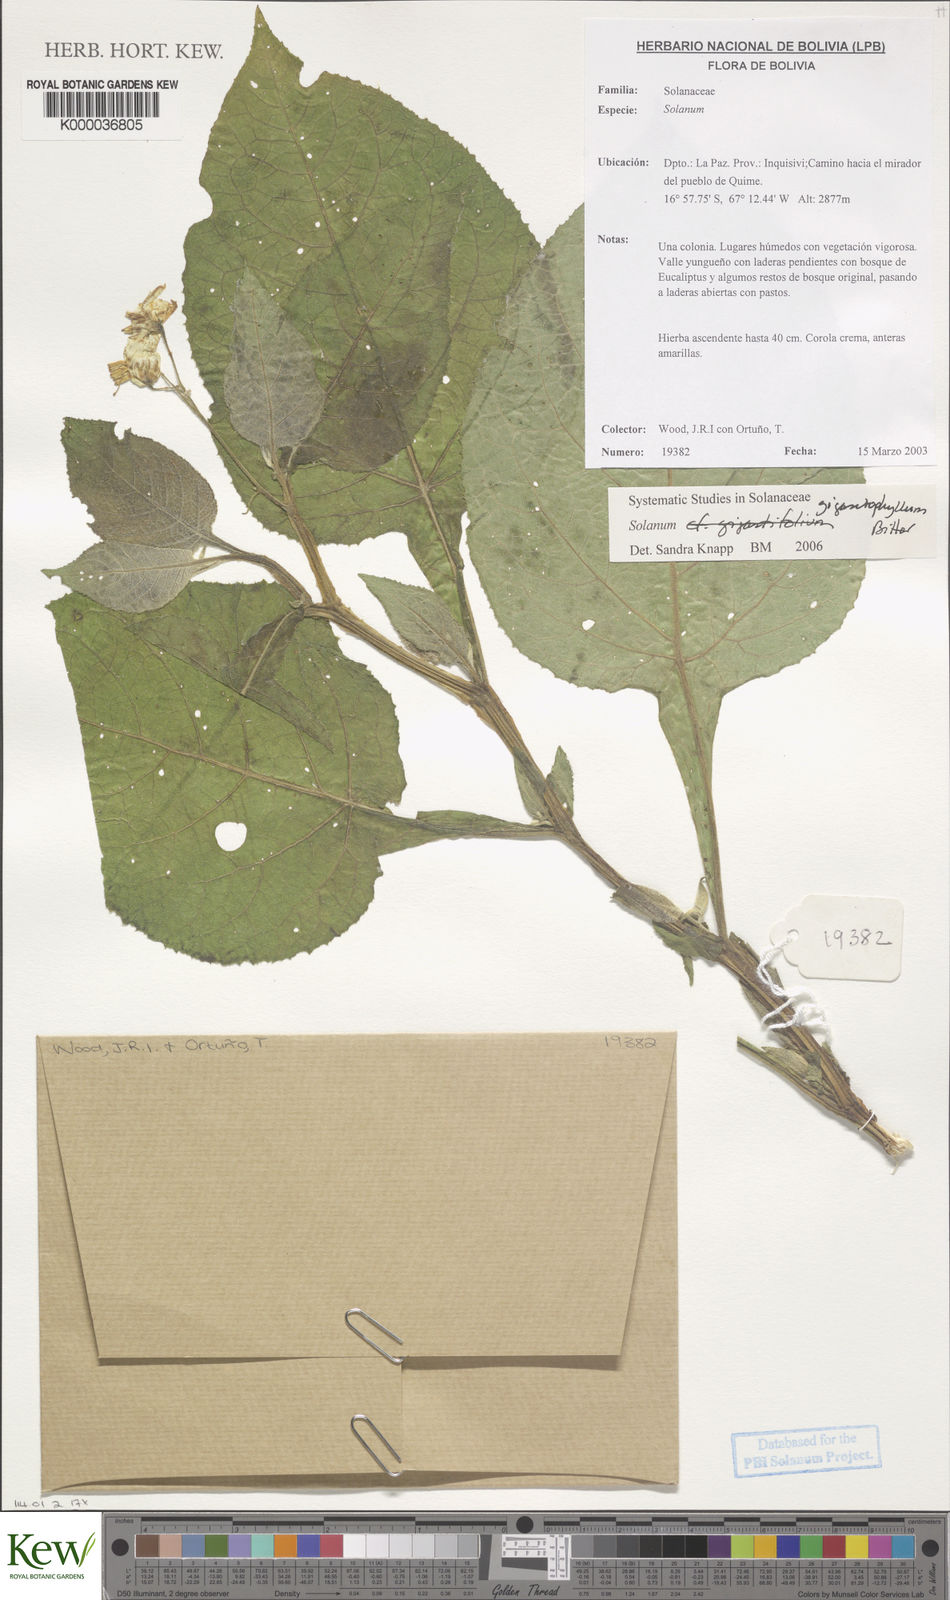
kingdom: Plantae
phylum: Tracheophyta
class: Magnoliopsida
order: Solanales
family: Solanaceae
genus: Solanum
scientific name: Solanum
